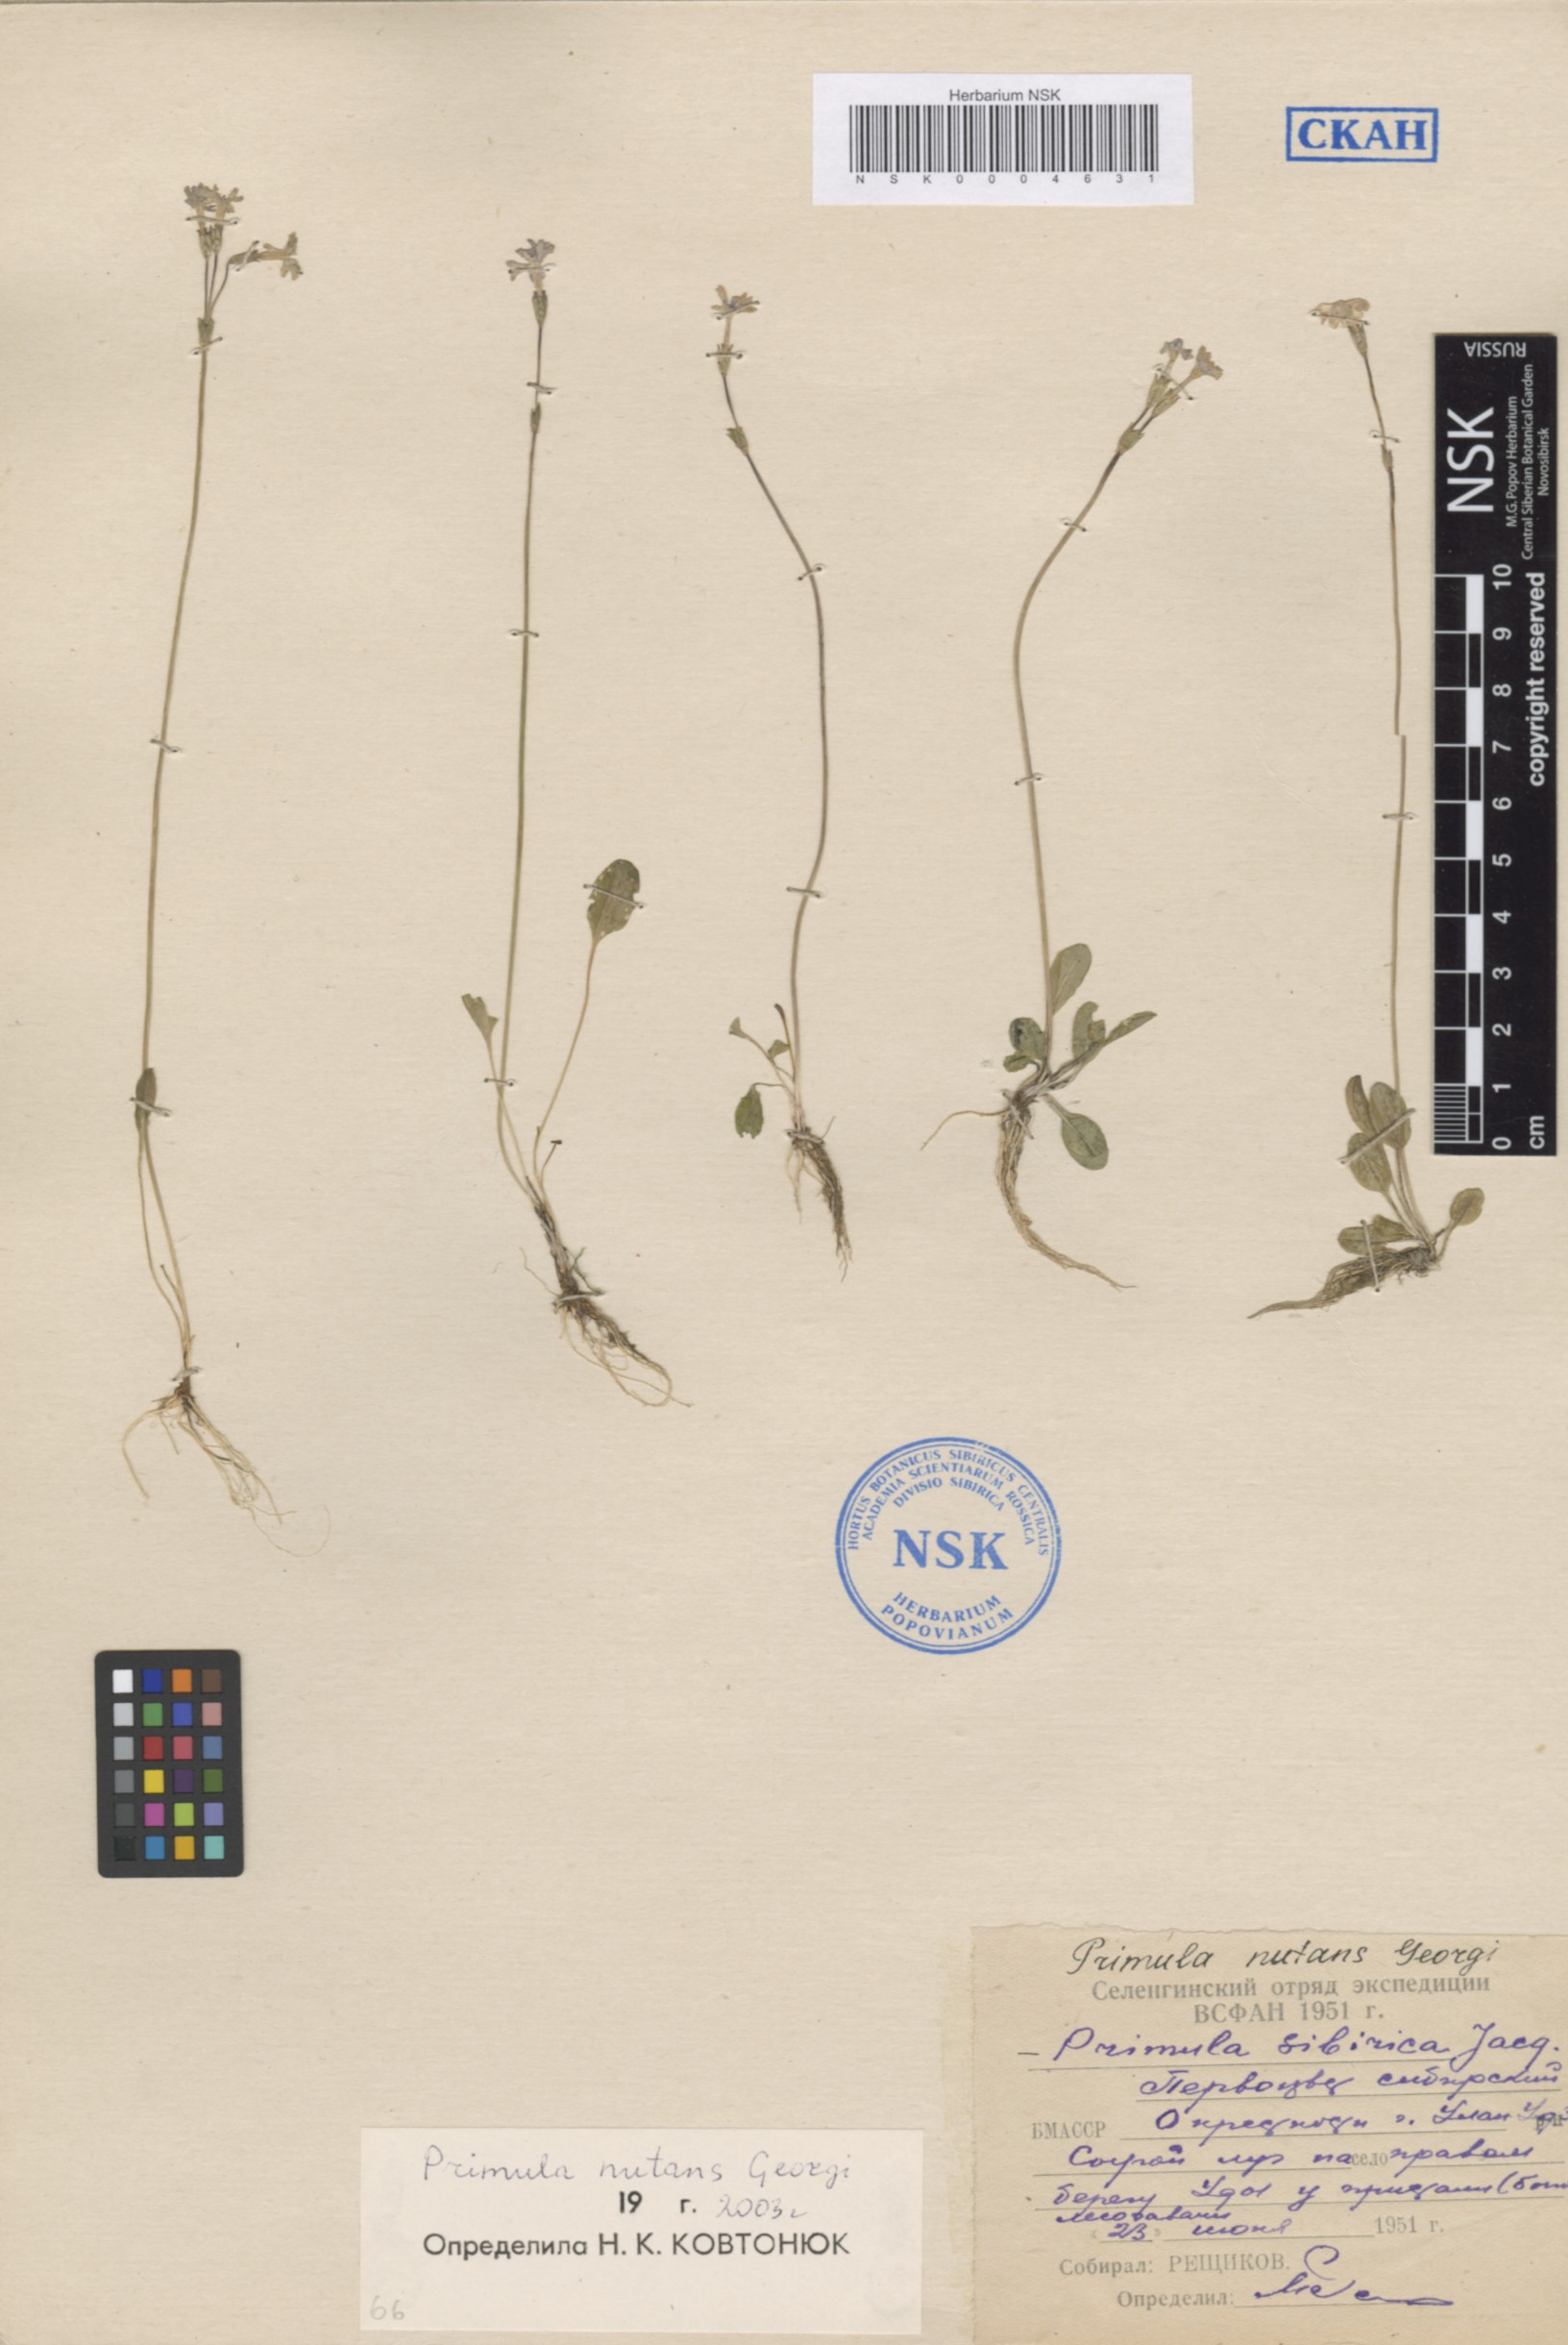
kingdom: Plantae
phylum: Tracheophyta
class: Magnoliopsida
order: Ericales
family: Primulaceae
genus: Primula
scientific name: Primula nutans
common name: Siberian primrose
